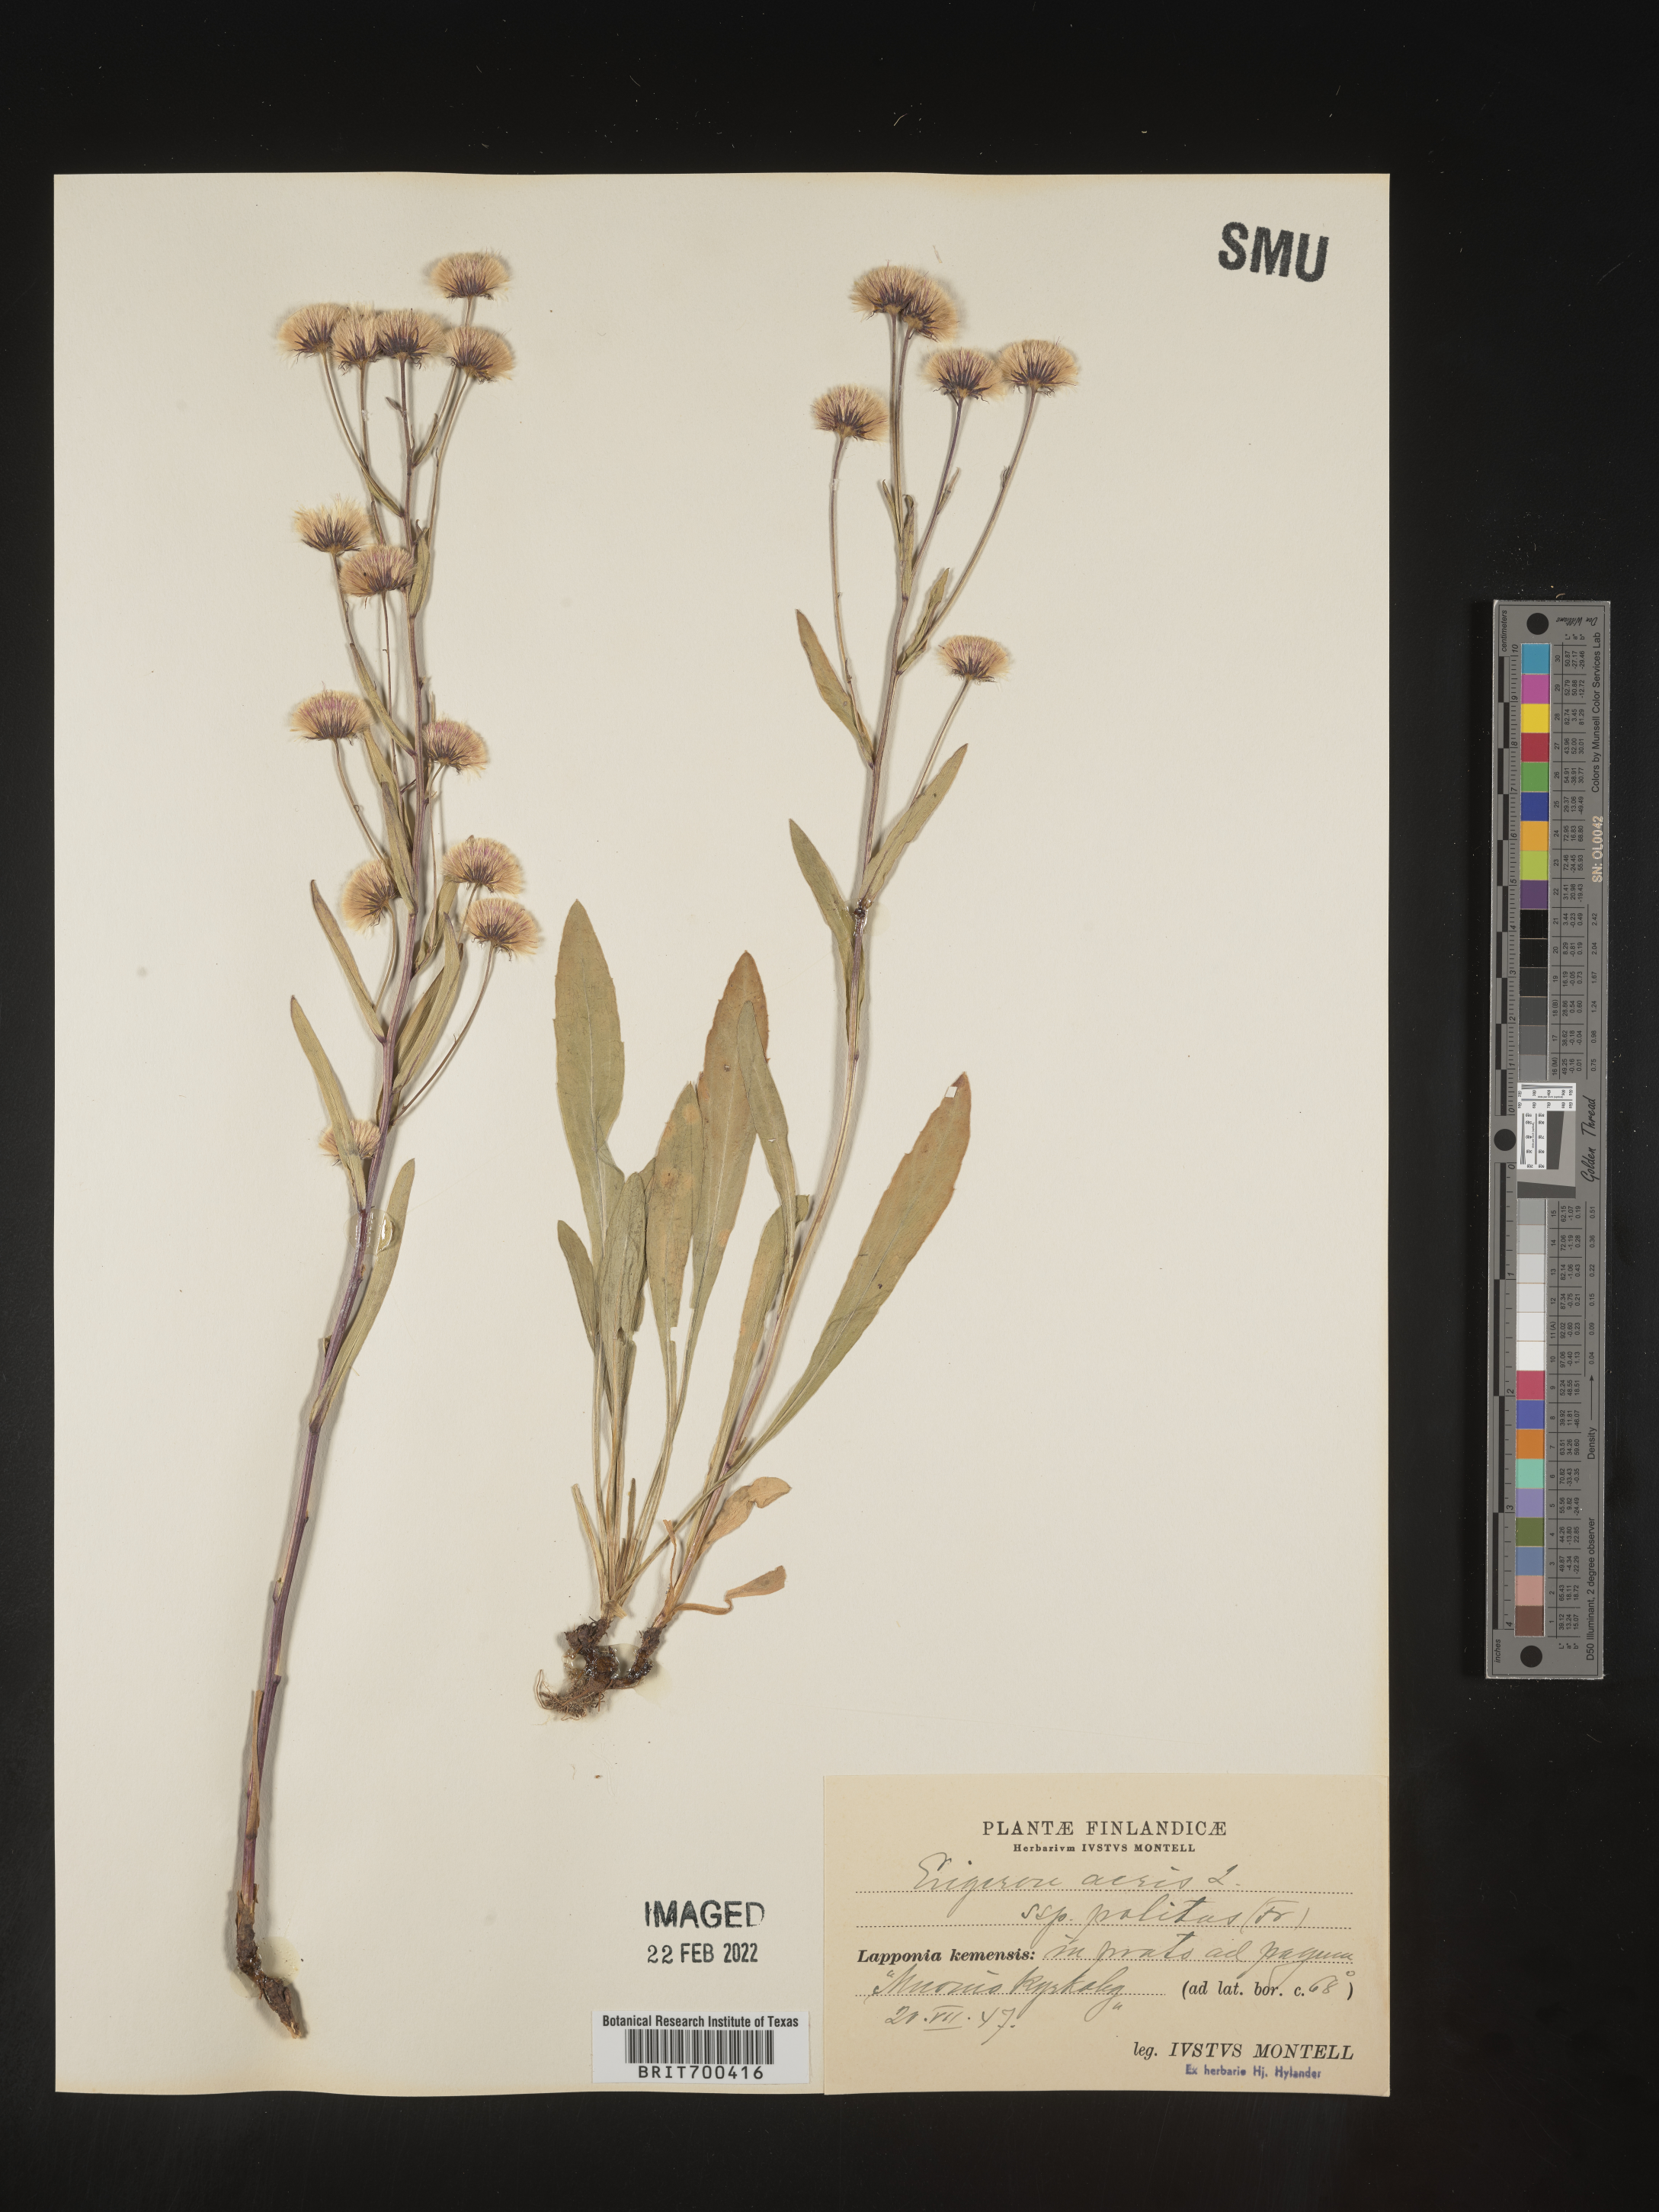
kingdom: Plantae
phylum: Tracheophyta
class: Magnoliopsida
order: Asterales
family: Asteraceae
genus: Erigeron
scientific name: Erigeron
